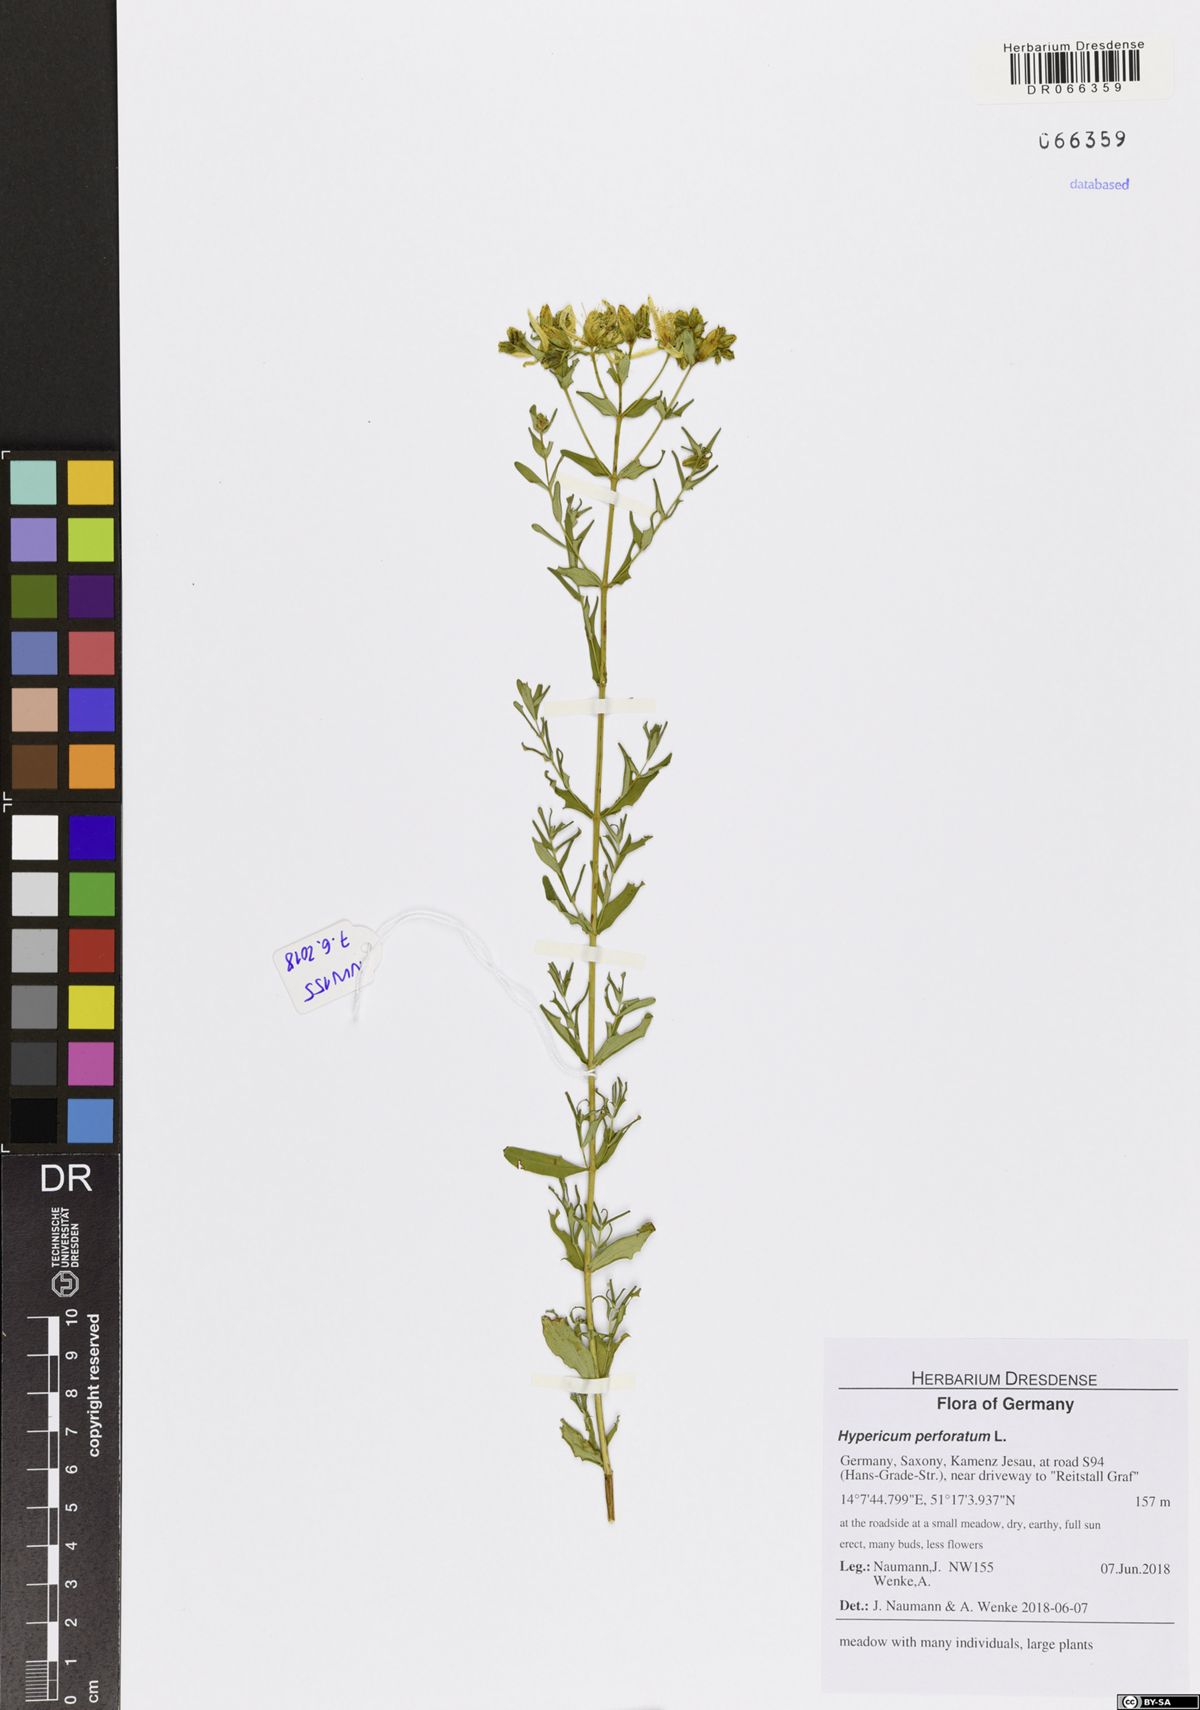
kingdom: Plantae
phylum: Tracheophyta
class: Magnoliopsida
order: Malpighiales
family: Hypericaceae
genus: Hypericum
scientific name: Hypericum perforatum
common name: Common st. johnswort
